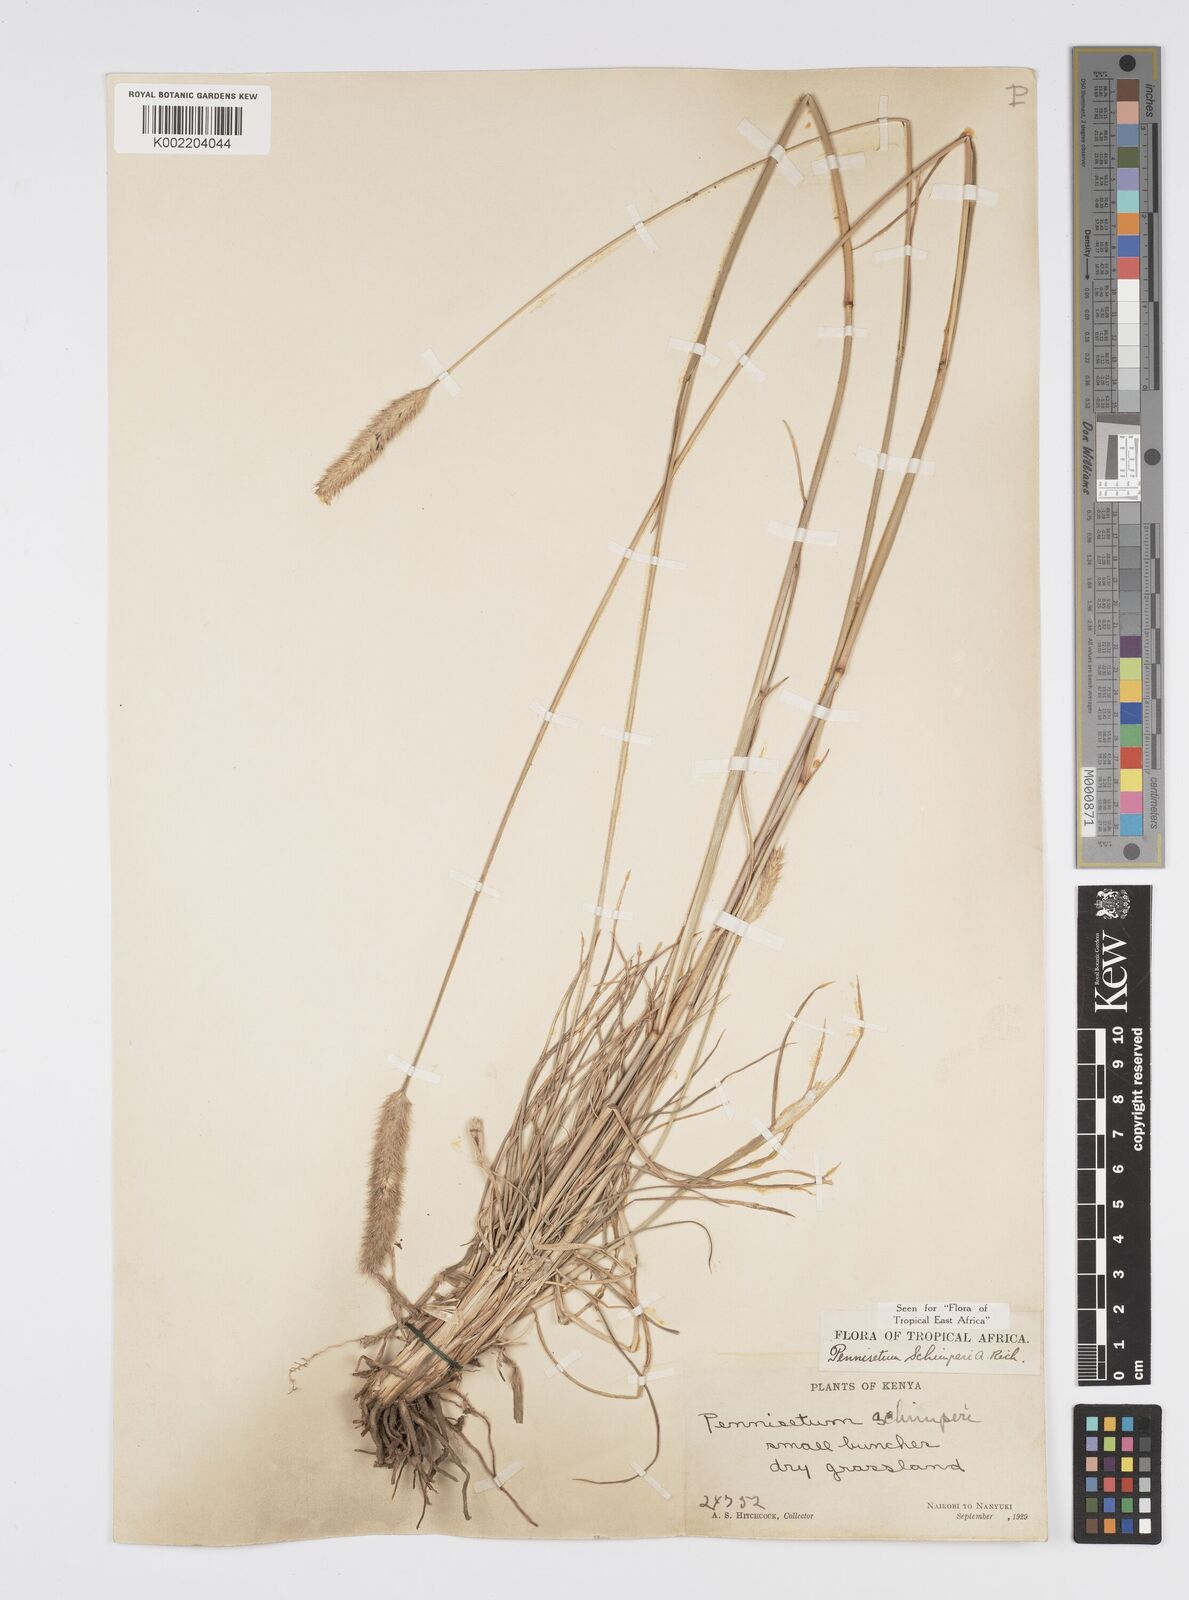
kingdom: Plantae
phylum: Tracheophyta
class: Liliopsida
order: Poales
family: Poaceae
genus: Cenchrus
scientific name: Cenchrus sphacelatus
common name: Bulgras
